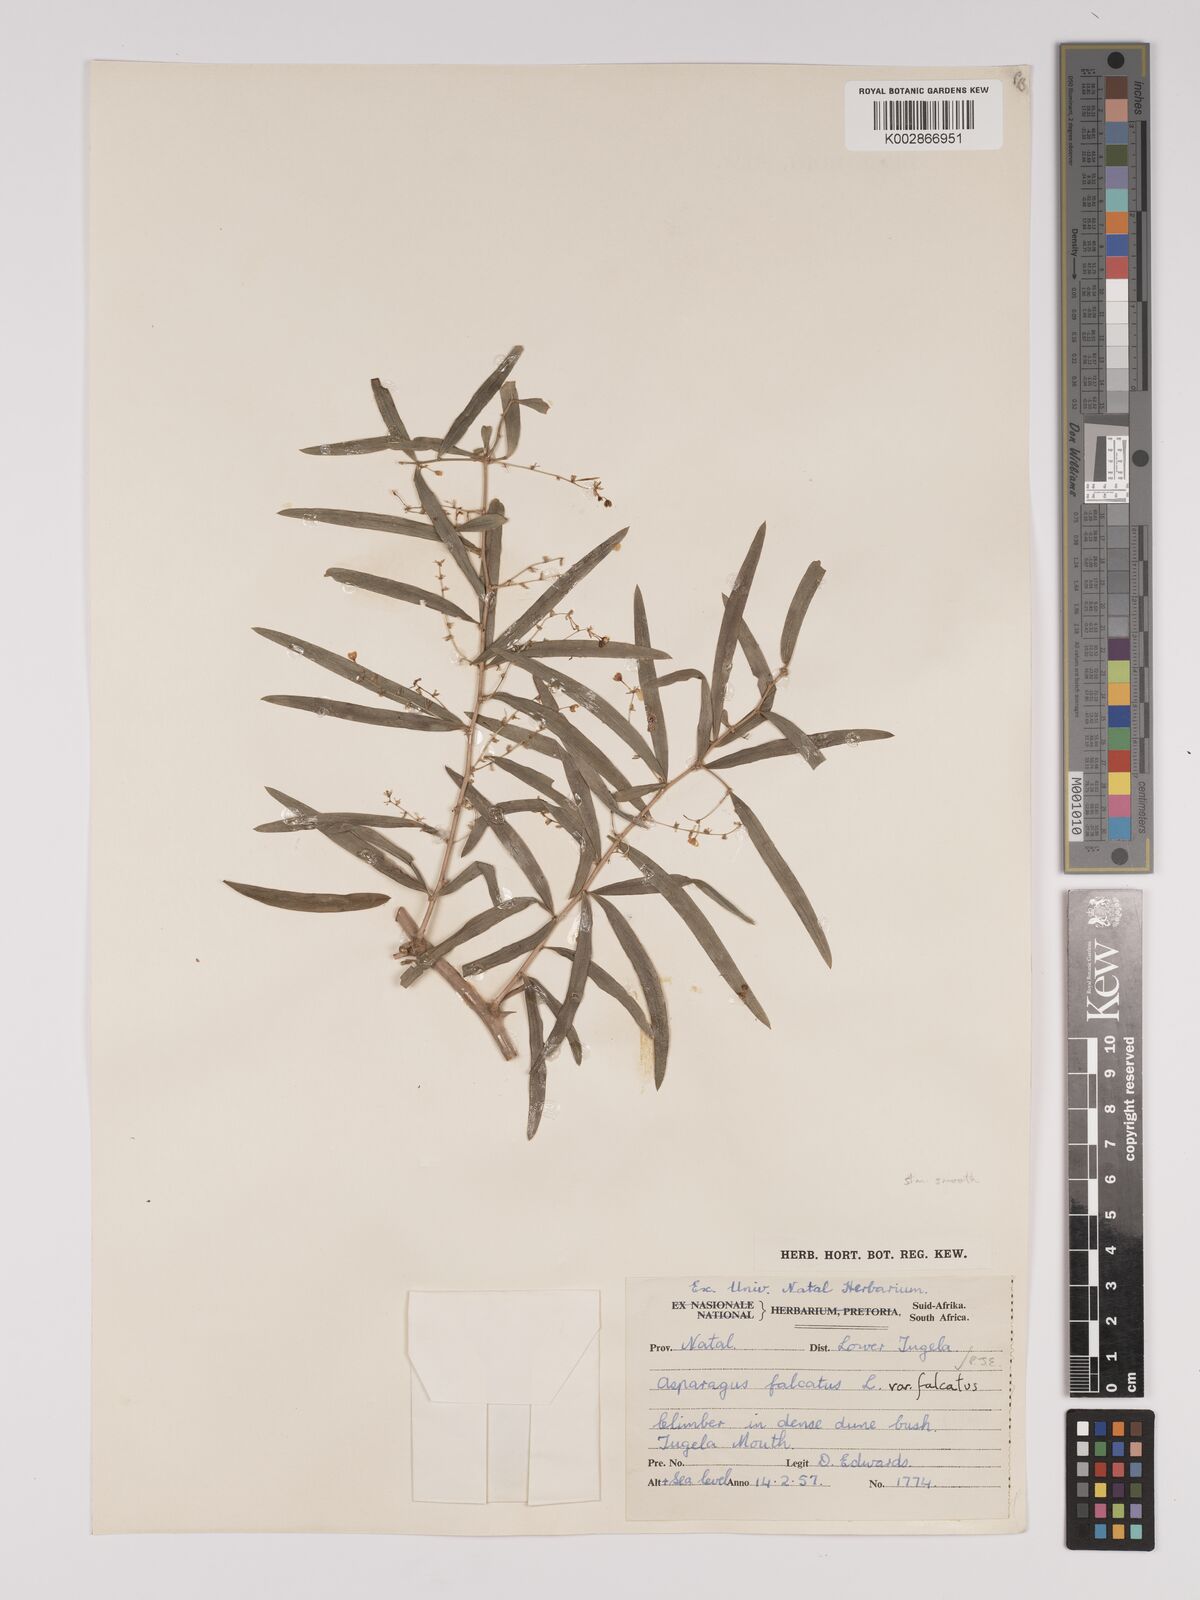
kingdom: Plantae
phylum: Tracheophyta
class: Liliopsida
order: Asparagales
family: Asparagaceae
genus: Asparagus
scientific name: Asparagus falcatus
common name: Asparagus
